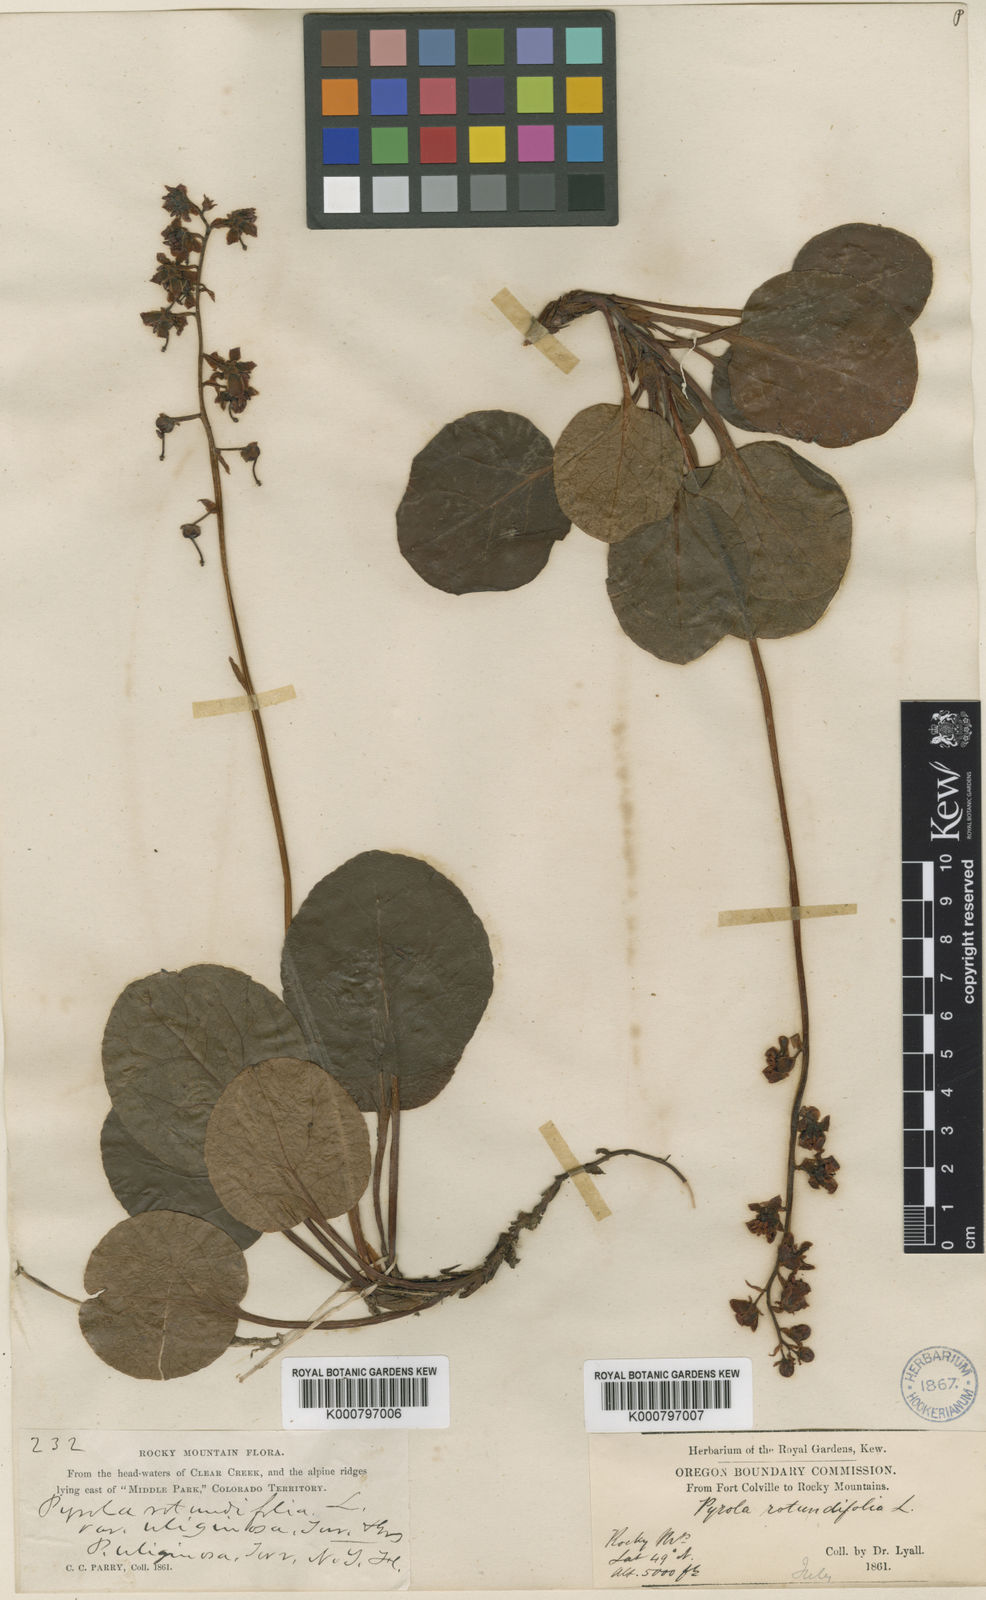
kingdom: Plantae
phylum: Tracheophyta
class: Magnoliopsida
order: Ericales
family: Ericaceae
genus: Pyrola
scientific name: Pyrola asarifolia
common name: Bog wintergreen
